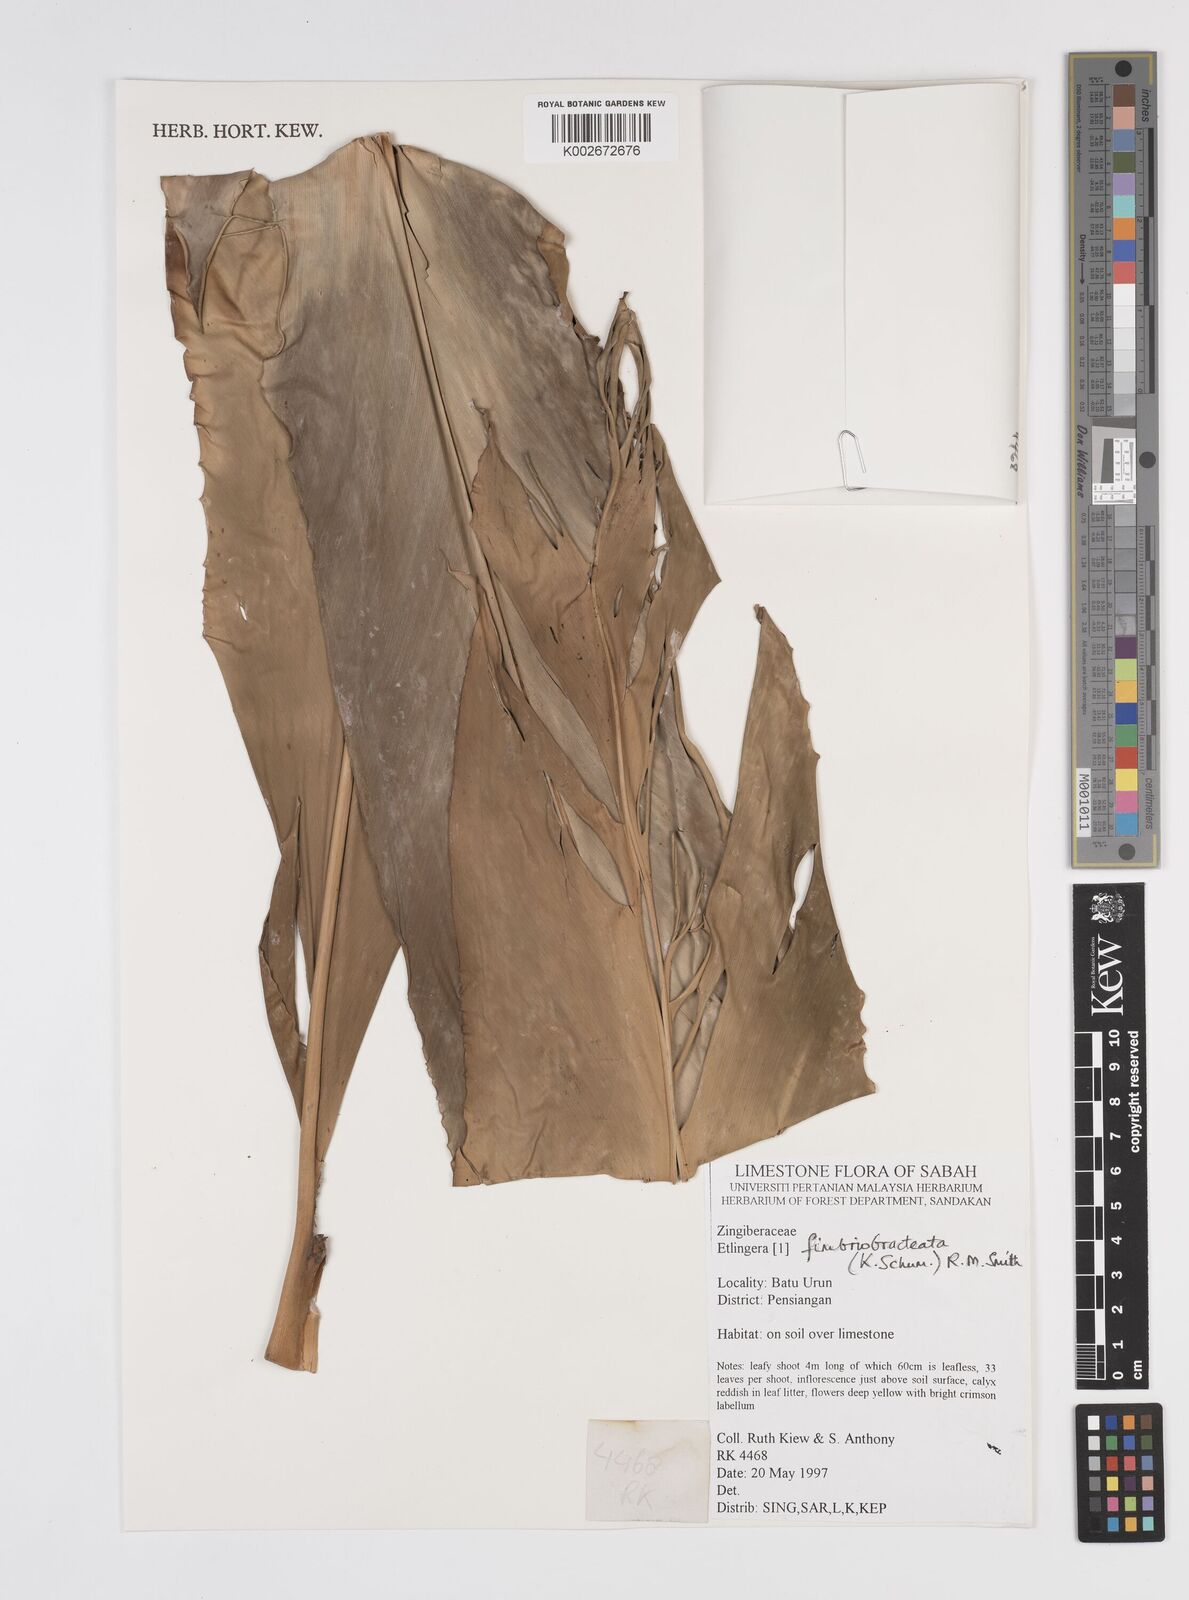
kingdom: Plantae
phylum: Tracheophyta
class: Liliopsida
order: Zingiberales
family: Zingiberaceae
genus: Etlingera
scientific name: Etlingera fimbriobracteata
